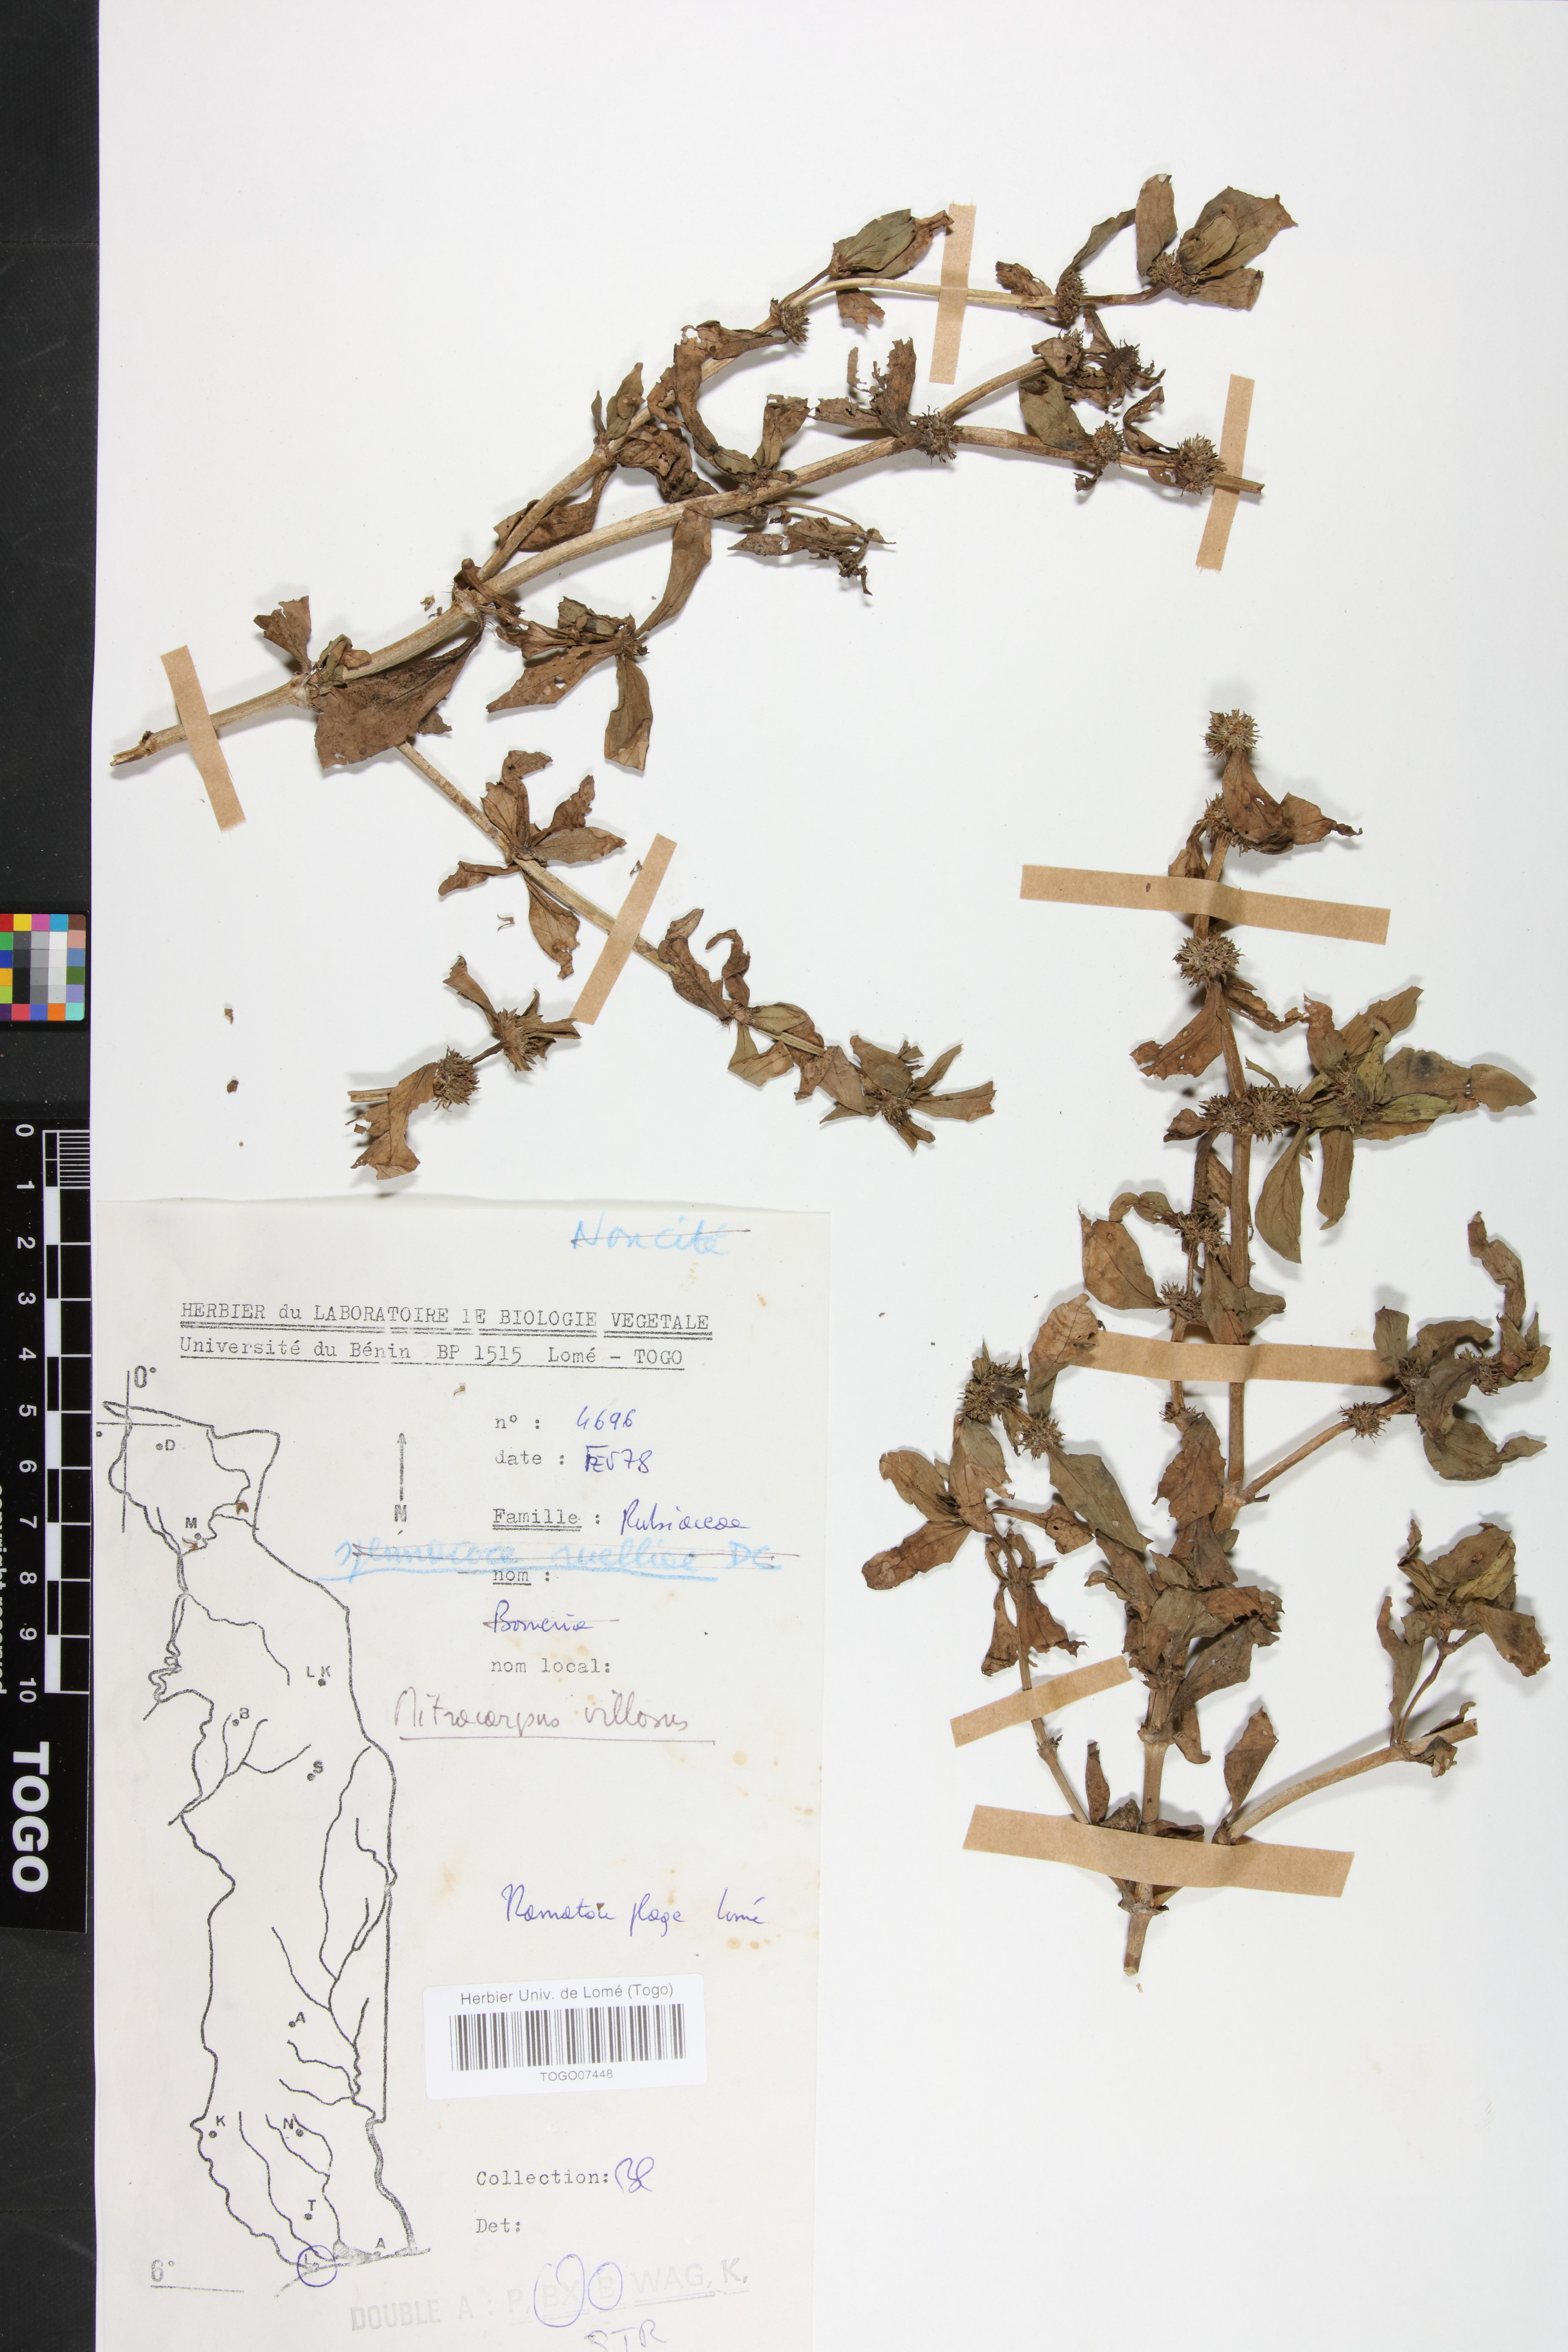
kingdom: Plantae
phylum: Tracheophyta
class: Magnoliopsida
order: Gentianales
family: Rubiaceae
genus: Mitracarpus
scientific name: Mitracarpus hirtus
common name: Tropical girdlepod
